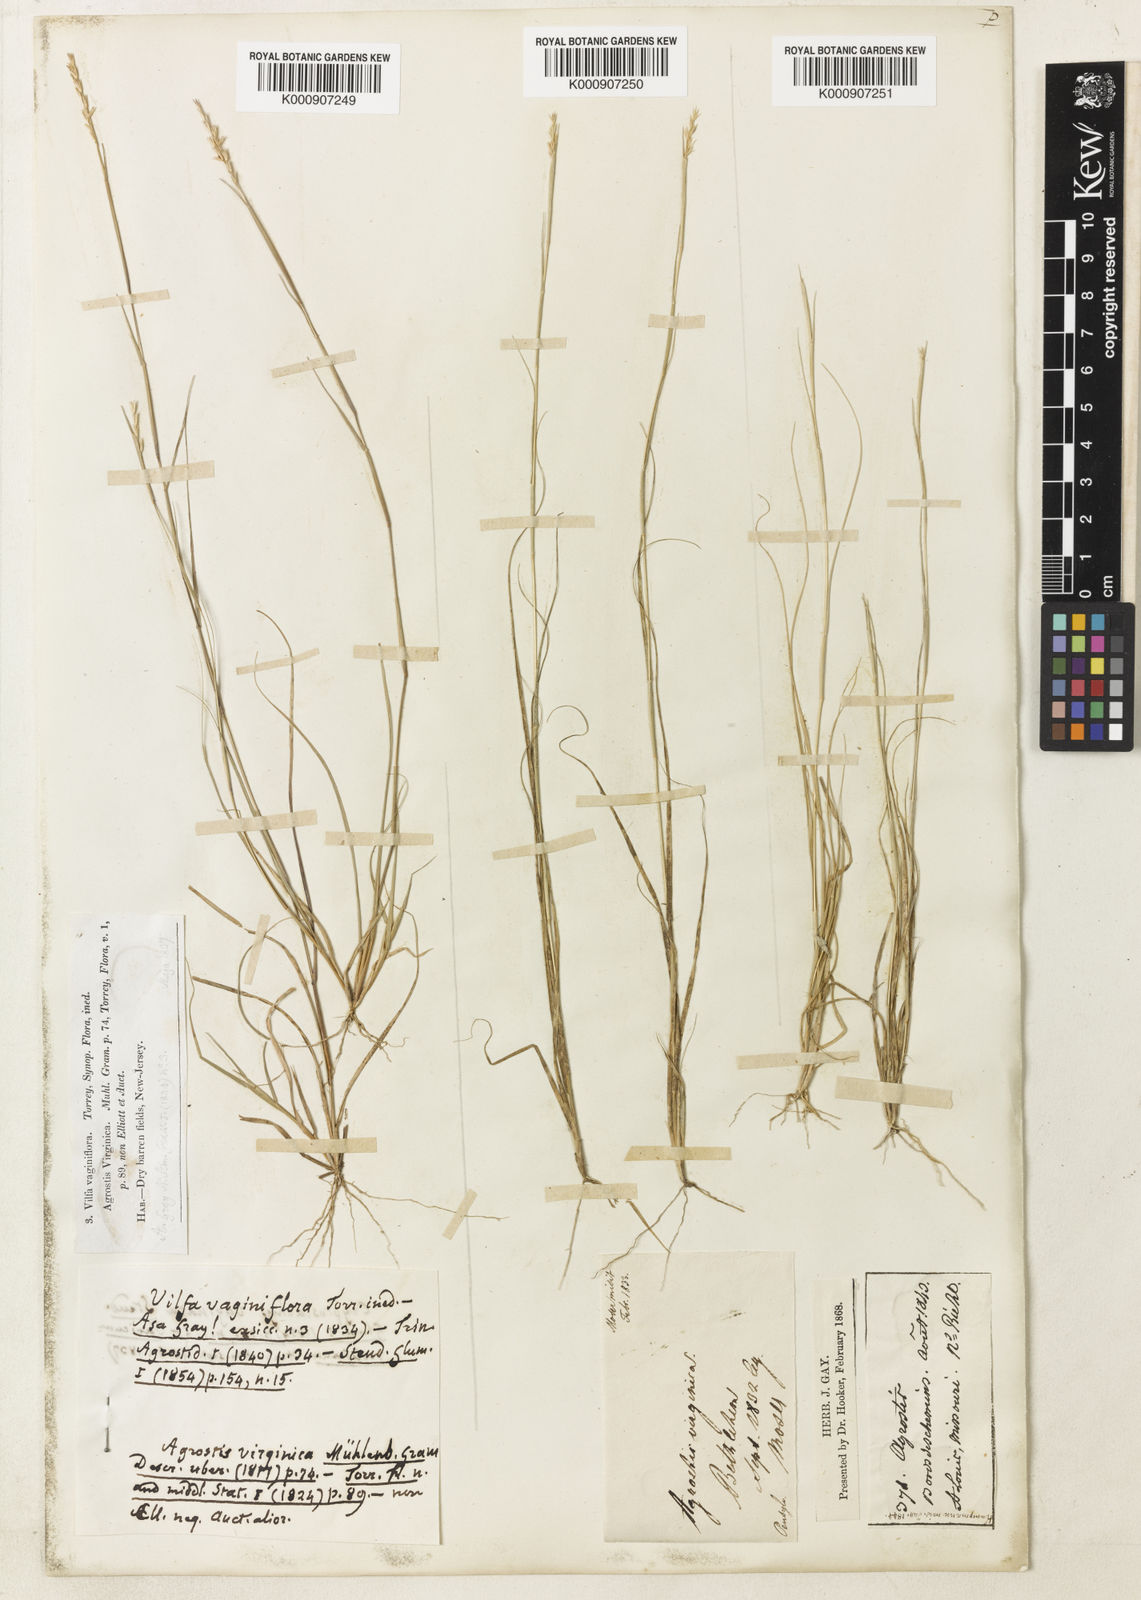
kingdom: Plantae
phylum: Tracheophyta
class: Liliopsida
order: Poales
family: Poaceae
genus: Sporobolus
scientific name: Sporobolus vaginiflorus
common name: Poverty dropseed
